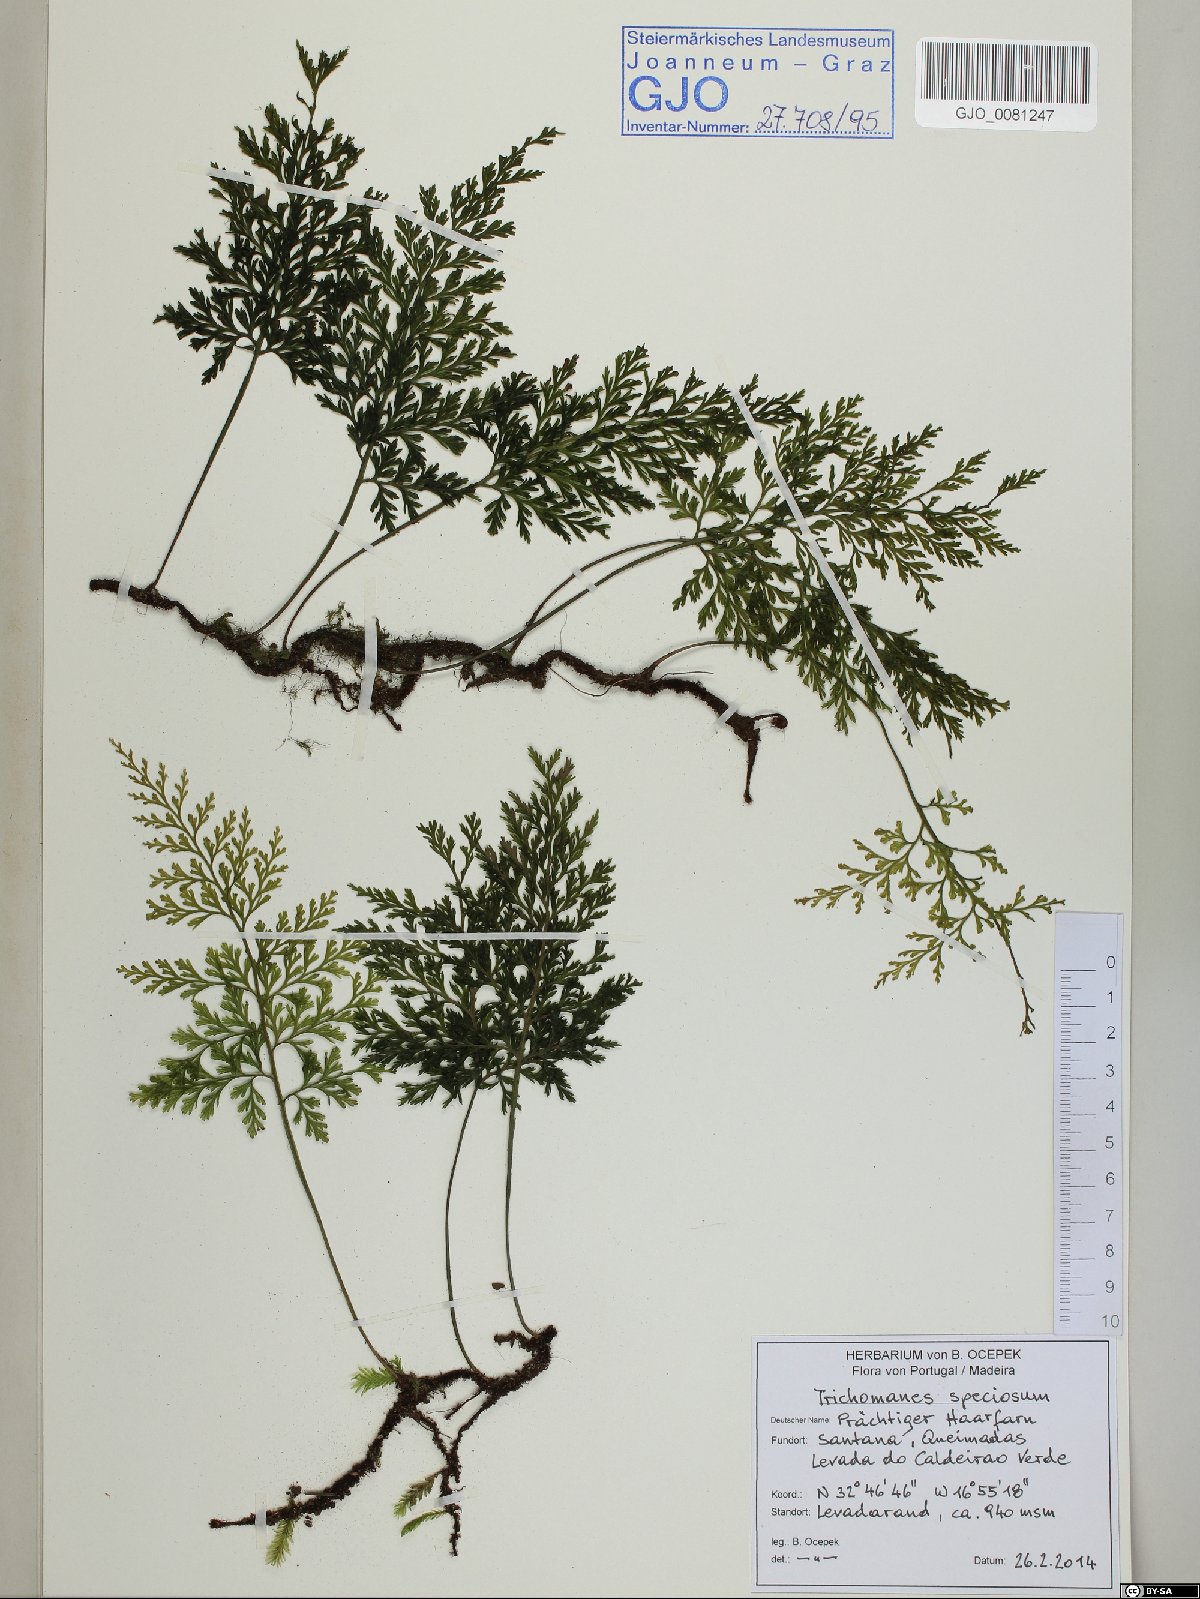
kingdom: Plantae
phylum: Tracheophyta
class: Polypodiopsida
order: Hymenophyllales
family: Hymenophyllaceae
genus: Vandenboschia
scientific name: Vandenboschia speciosa
